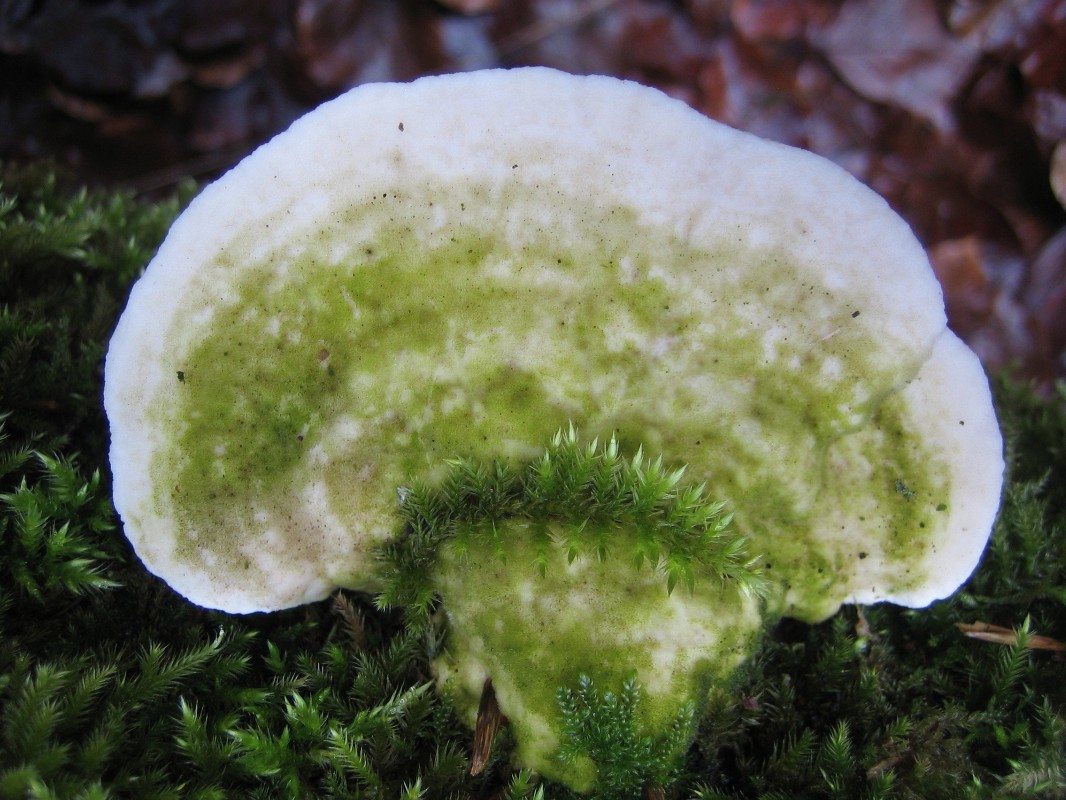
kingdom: Fungi
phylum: Basidiomycota
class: Agaricomycetes
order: Polyporales
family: Polyporaceae
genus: Trametes
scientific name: Trametes gibbosa
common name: puklet læderporesvamp
